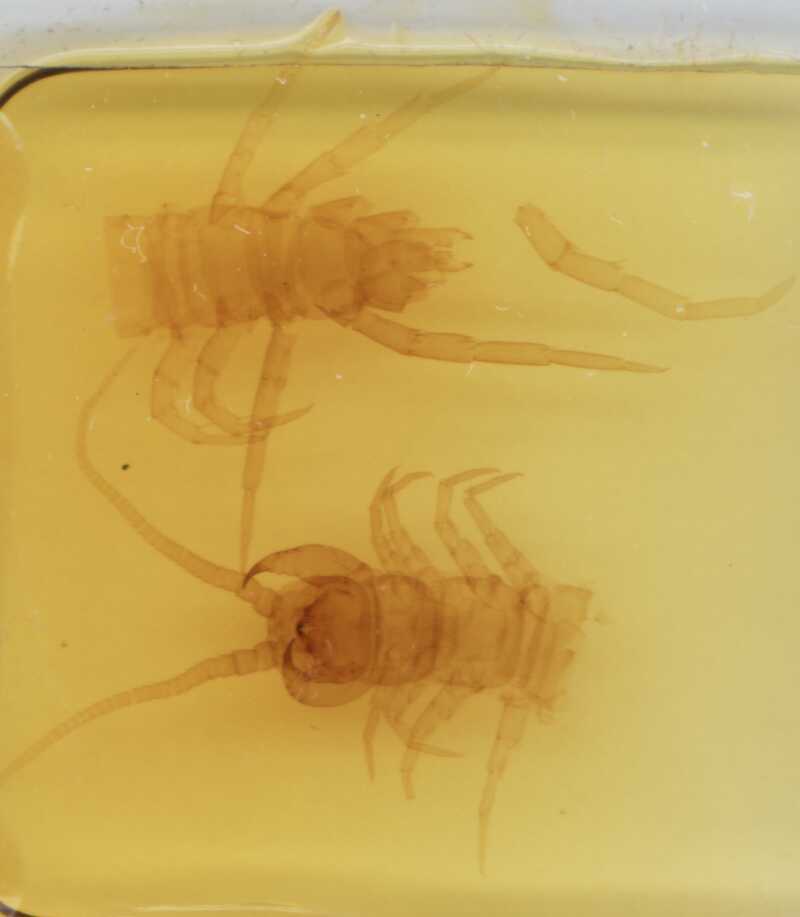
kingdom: Animalia
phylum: Arthropoda
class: Chilopoda
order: Lithobiomorpha
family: Lithobiidae
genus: Lithobius
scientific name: Lithobius forficatus
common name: Centipede
